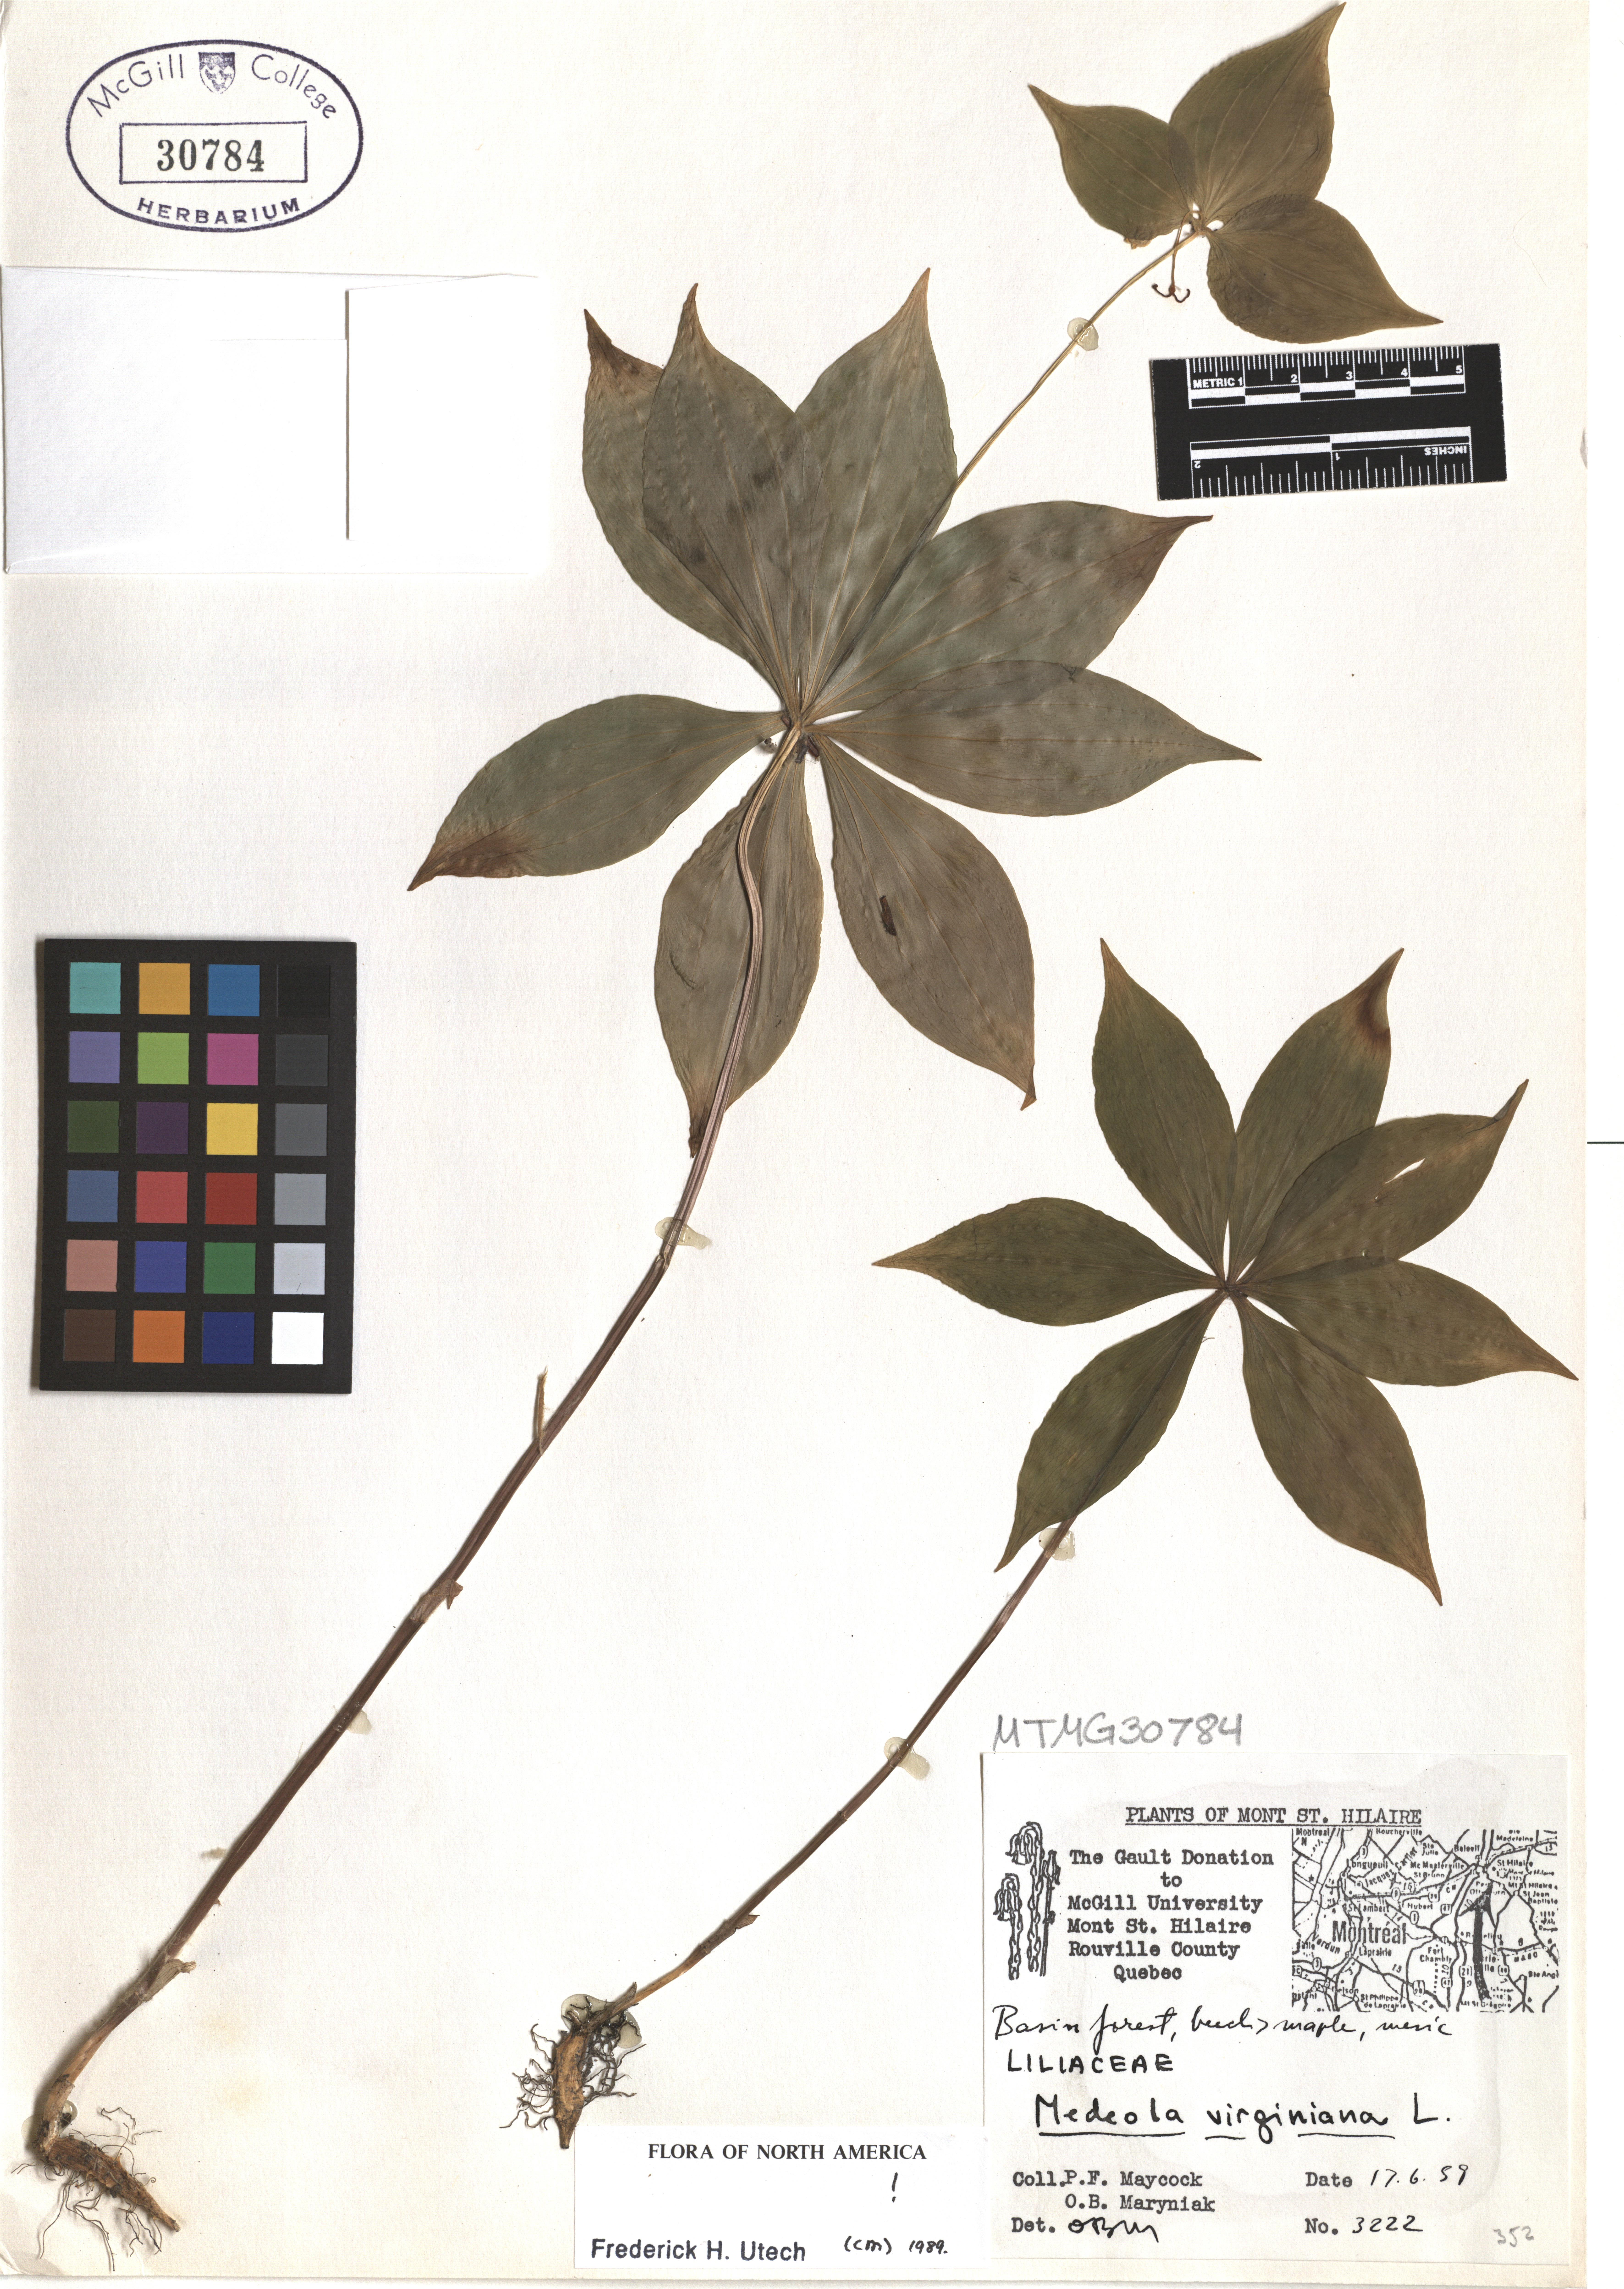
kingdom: Plantae
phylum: Tracheophyta
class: Liliopsida
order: Liliales
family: Liliaceae
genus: Medeola
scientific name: Medeola virginiana
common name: Indian cucumber-root
